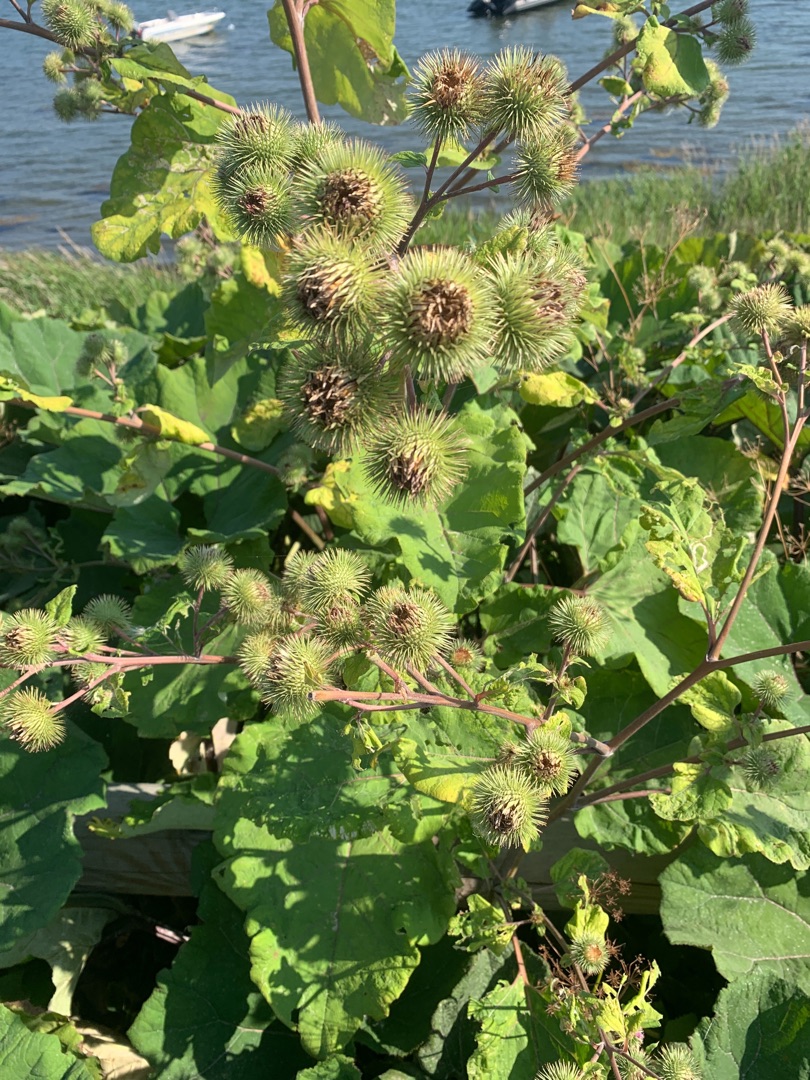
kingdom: Plantae
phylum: Tracheophyta
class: Magnoliopsida
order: Asterales
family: Asteraceae
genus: Arctium
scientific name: Arctium lappa
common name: Glat burre
